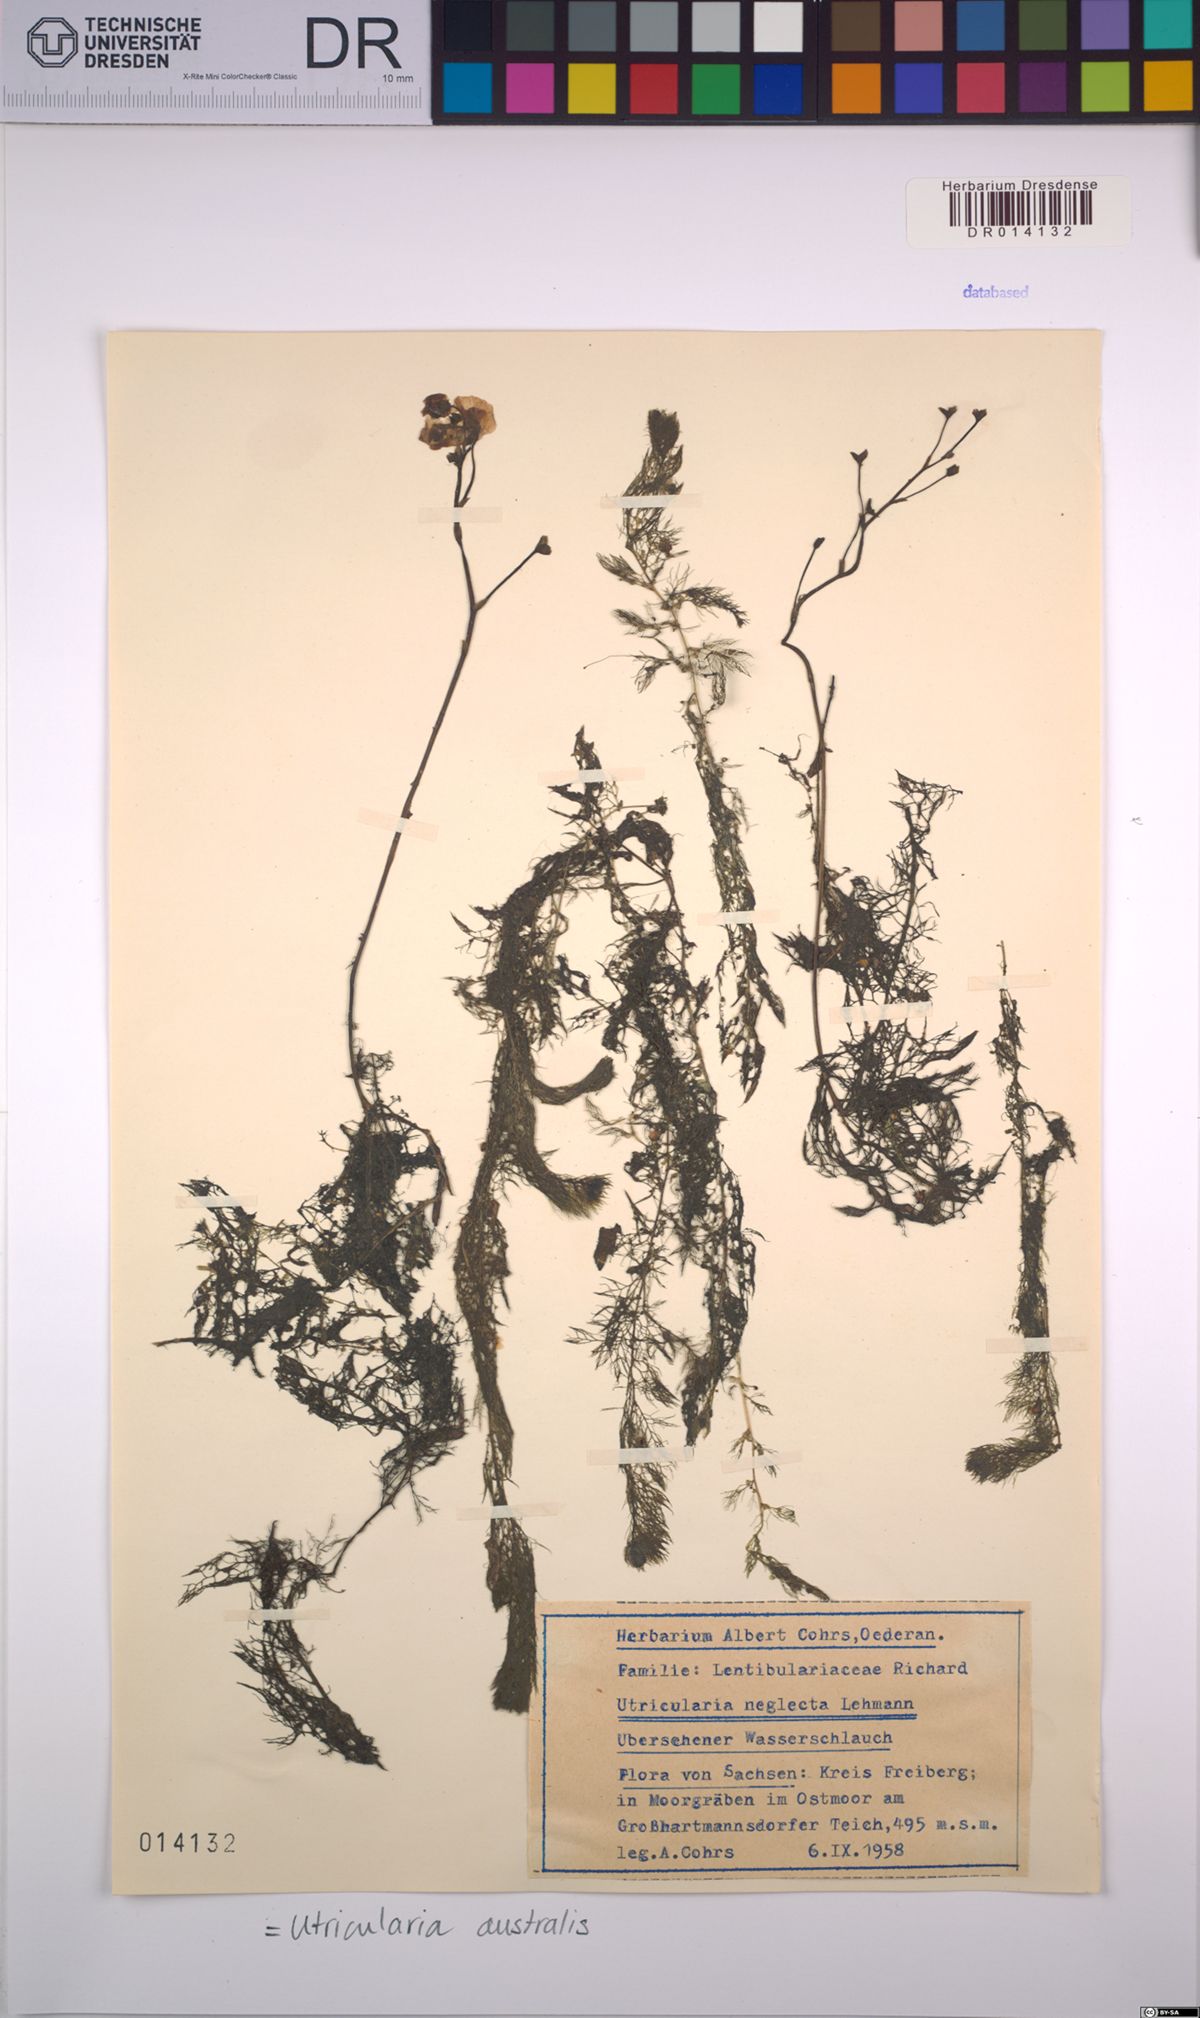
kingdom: Plantae
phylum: Tracheophyta
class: Magnoliopsida
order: Lamiales
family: Lentibulariaceae
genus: Utricularia
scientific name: Utricularia australis
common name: Bladderwort
